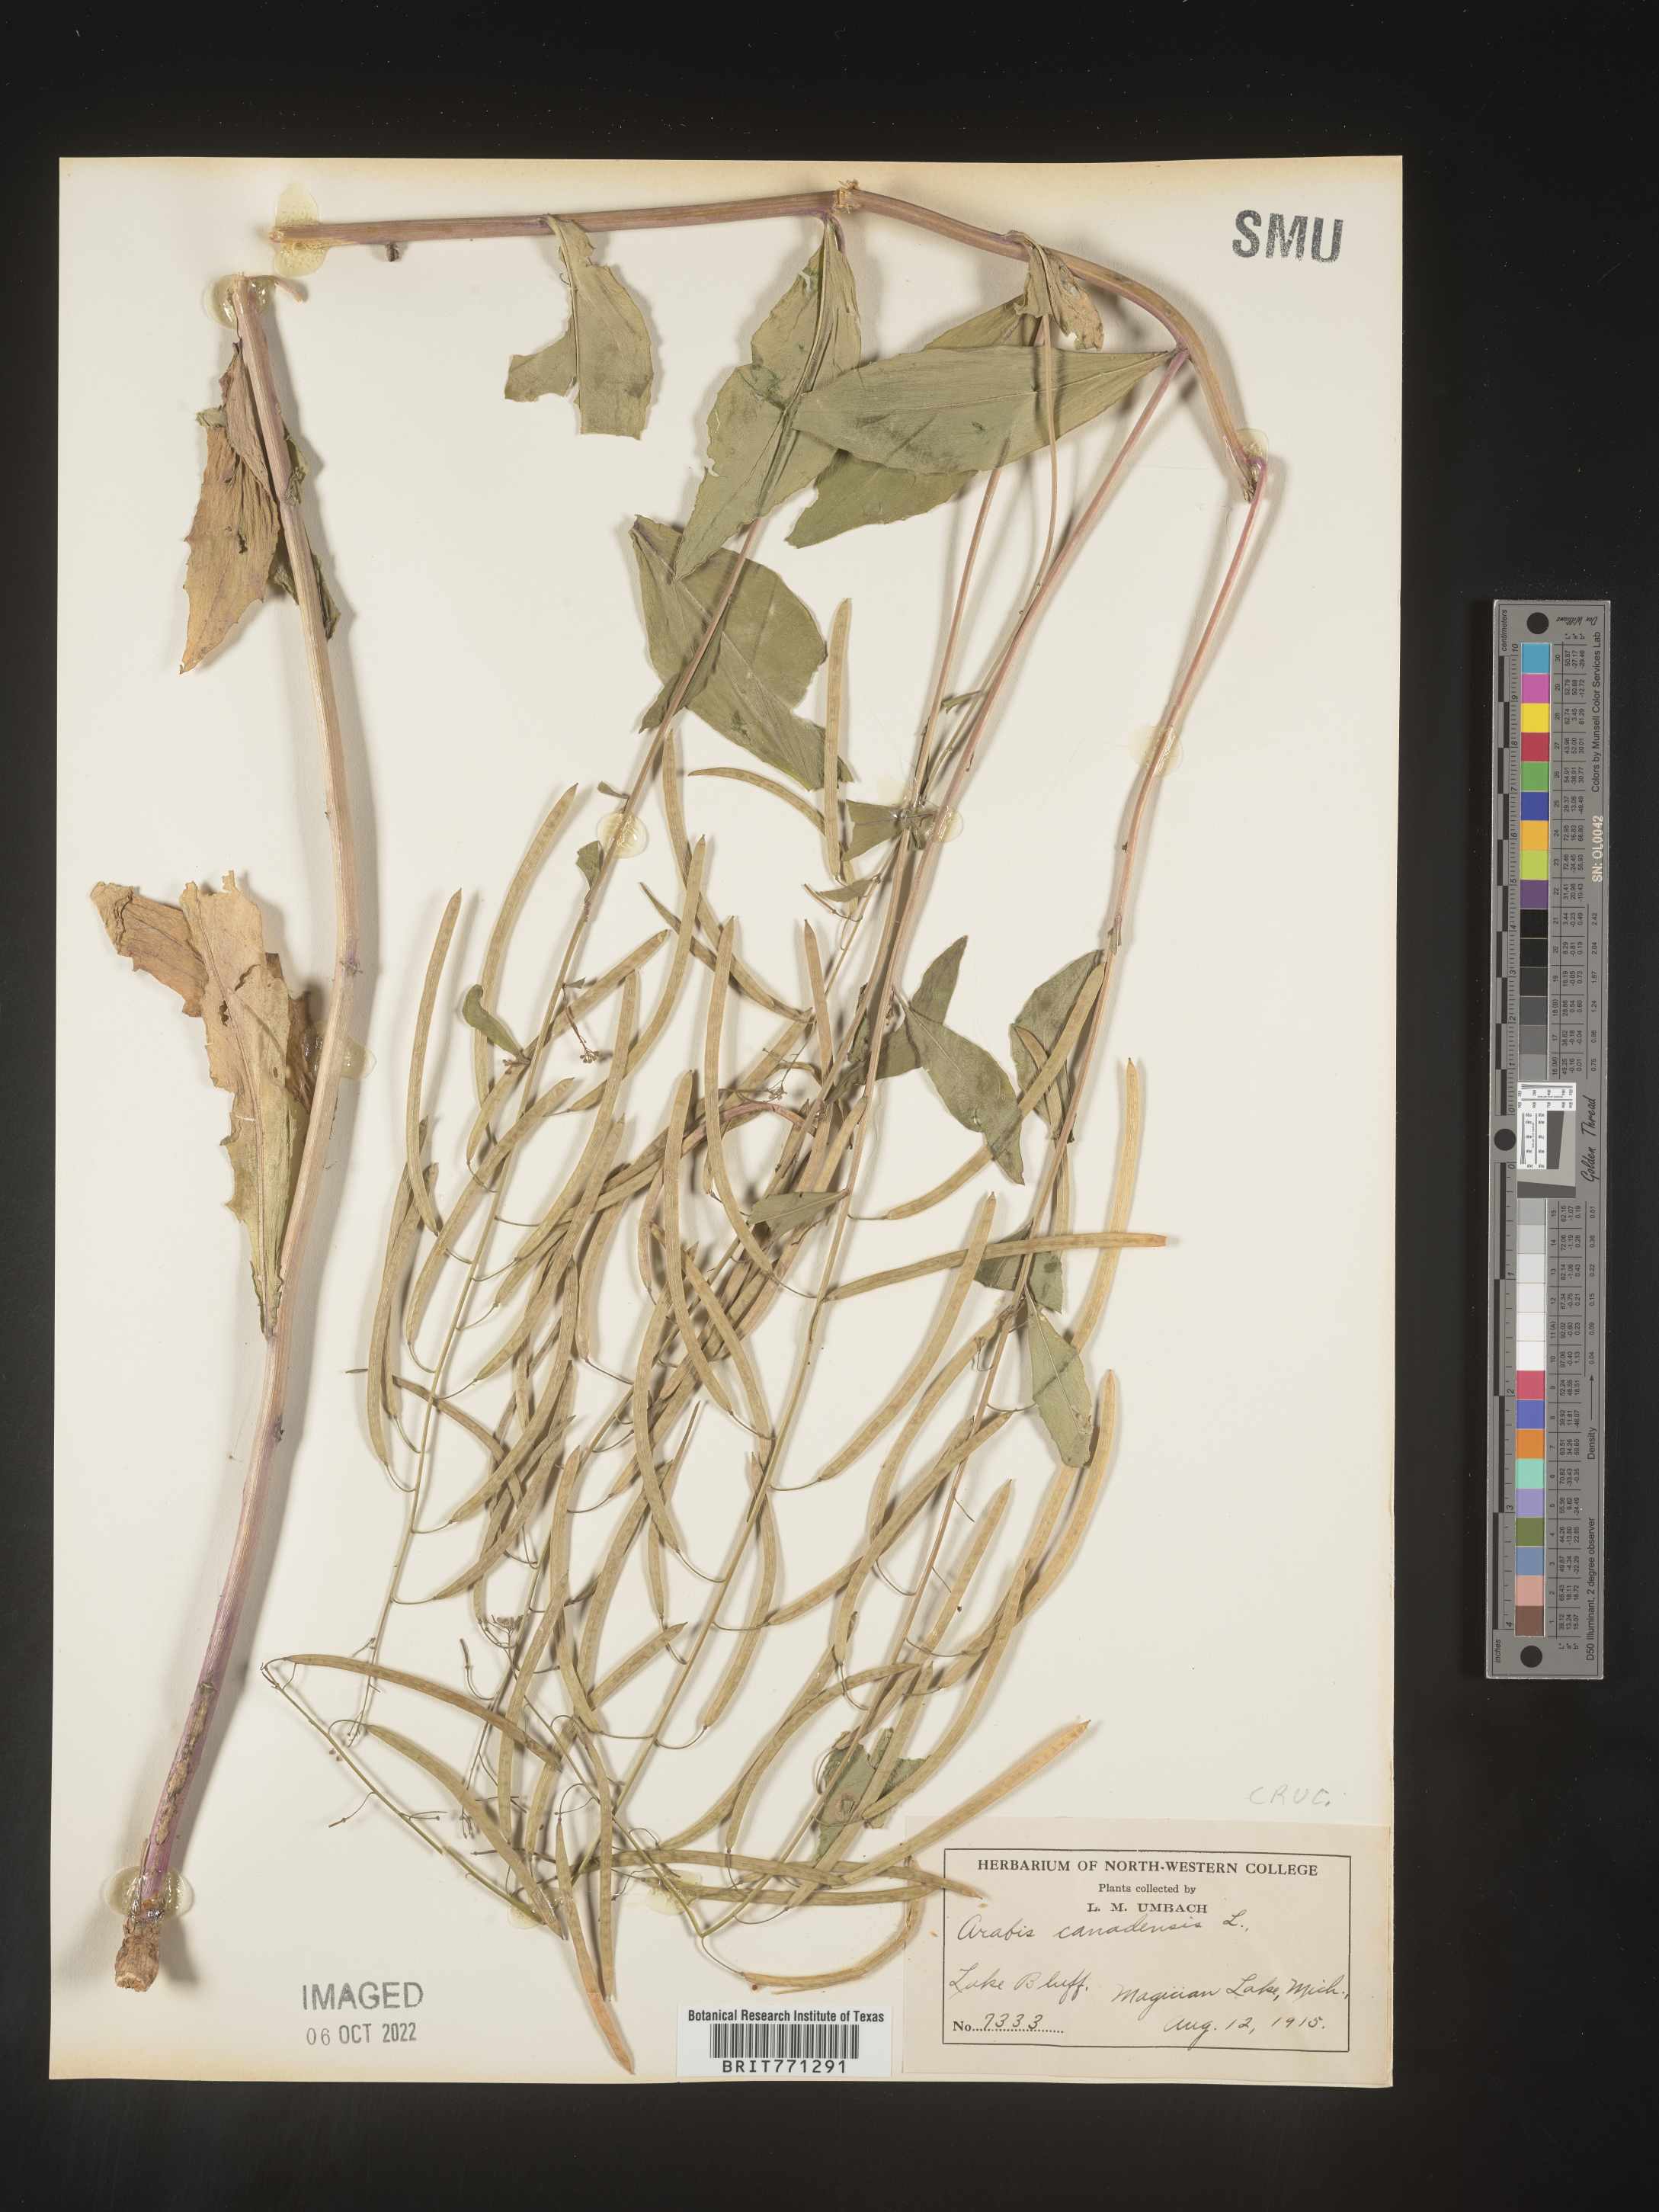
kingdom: Plantae
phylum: Tracheophyta
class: Magnoliopsida
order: Brassicales
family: Brassicaceae
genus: Borodinia
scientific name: Borodinia canadensis
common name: Sicklepod
